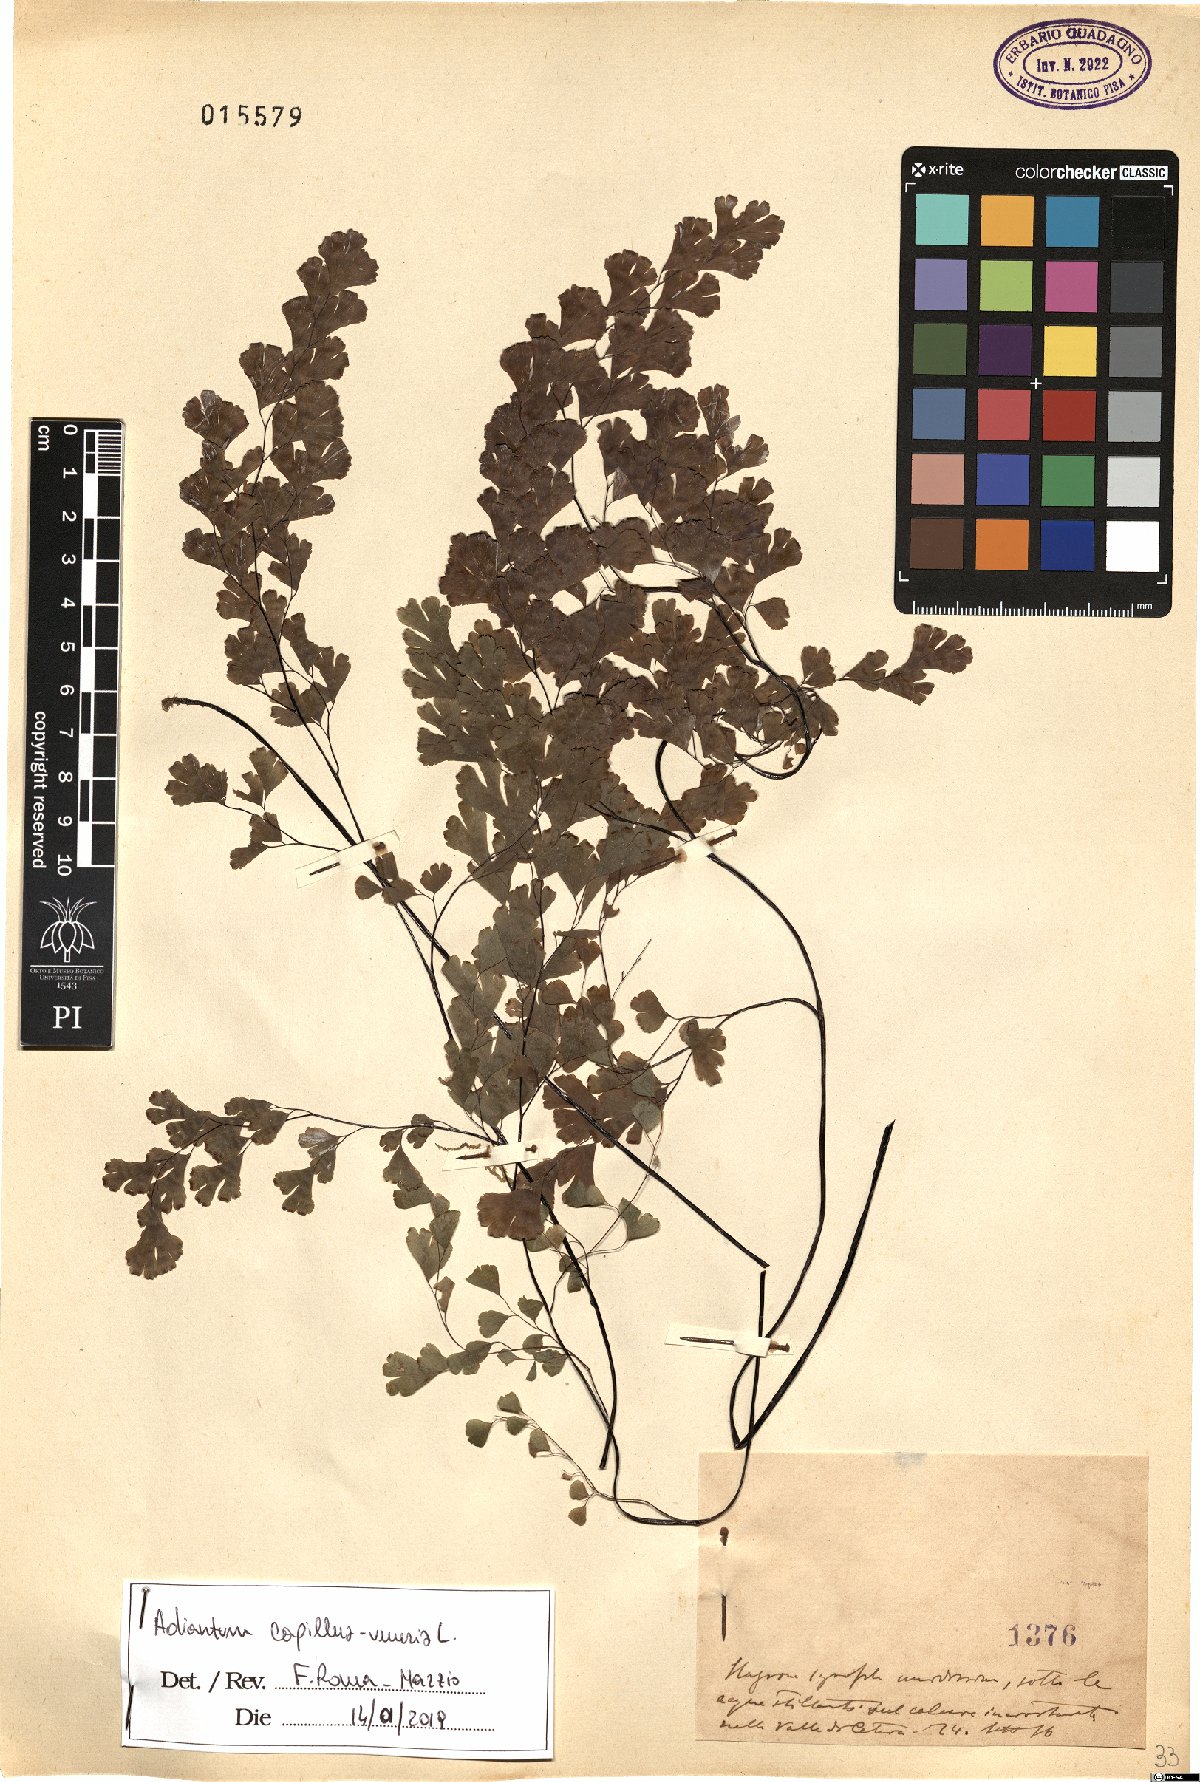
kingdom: Plantae
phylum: Tracheophyta
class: Polypodiopsida
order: Polypodiales
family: Pteridaceae
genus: Adiantum
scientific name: Adiantum capillus-veneris
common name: Maidenhair fern
